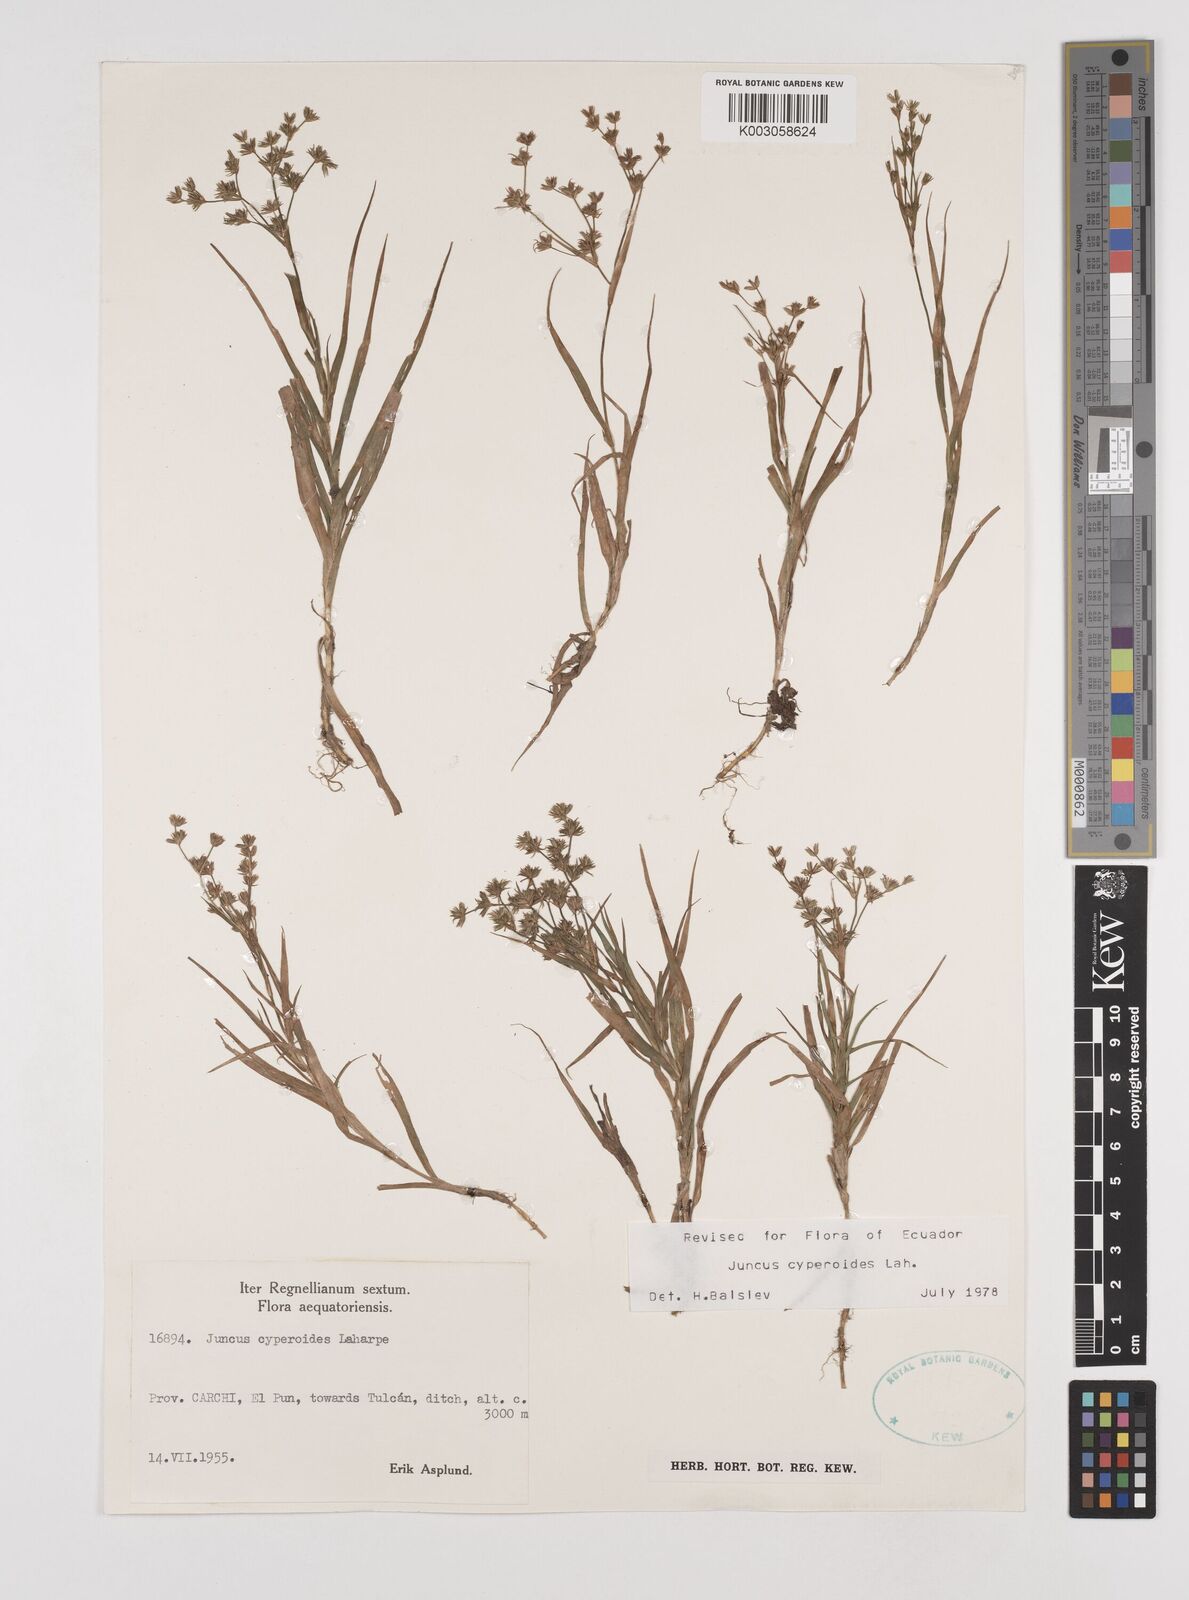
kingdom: Plantae
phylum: Tracheophyta
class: Liliopsida
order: Poales
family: Juncaceae
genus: Juncus
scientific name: Juncus cyperoides
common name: Forbestown rush
